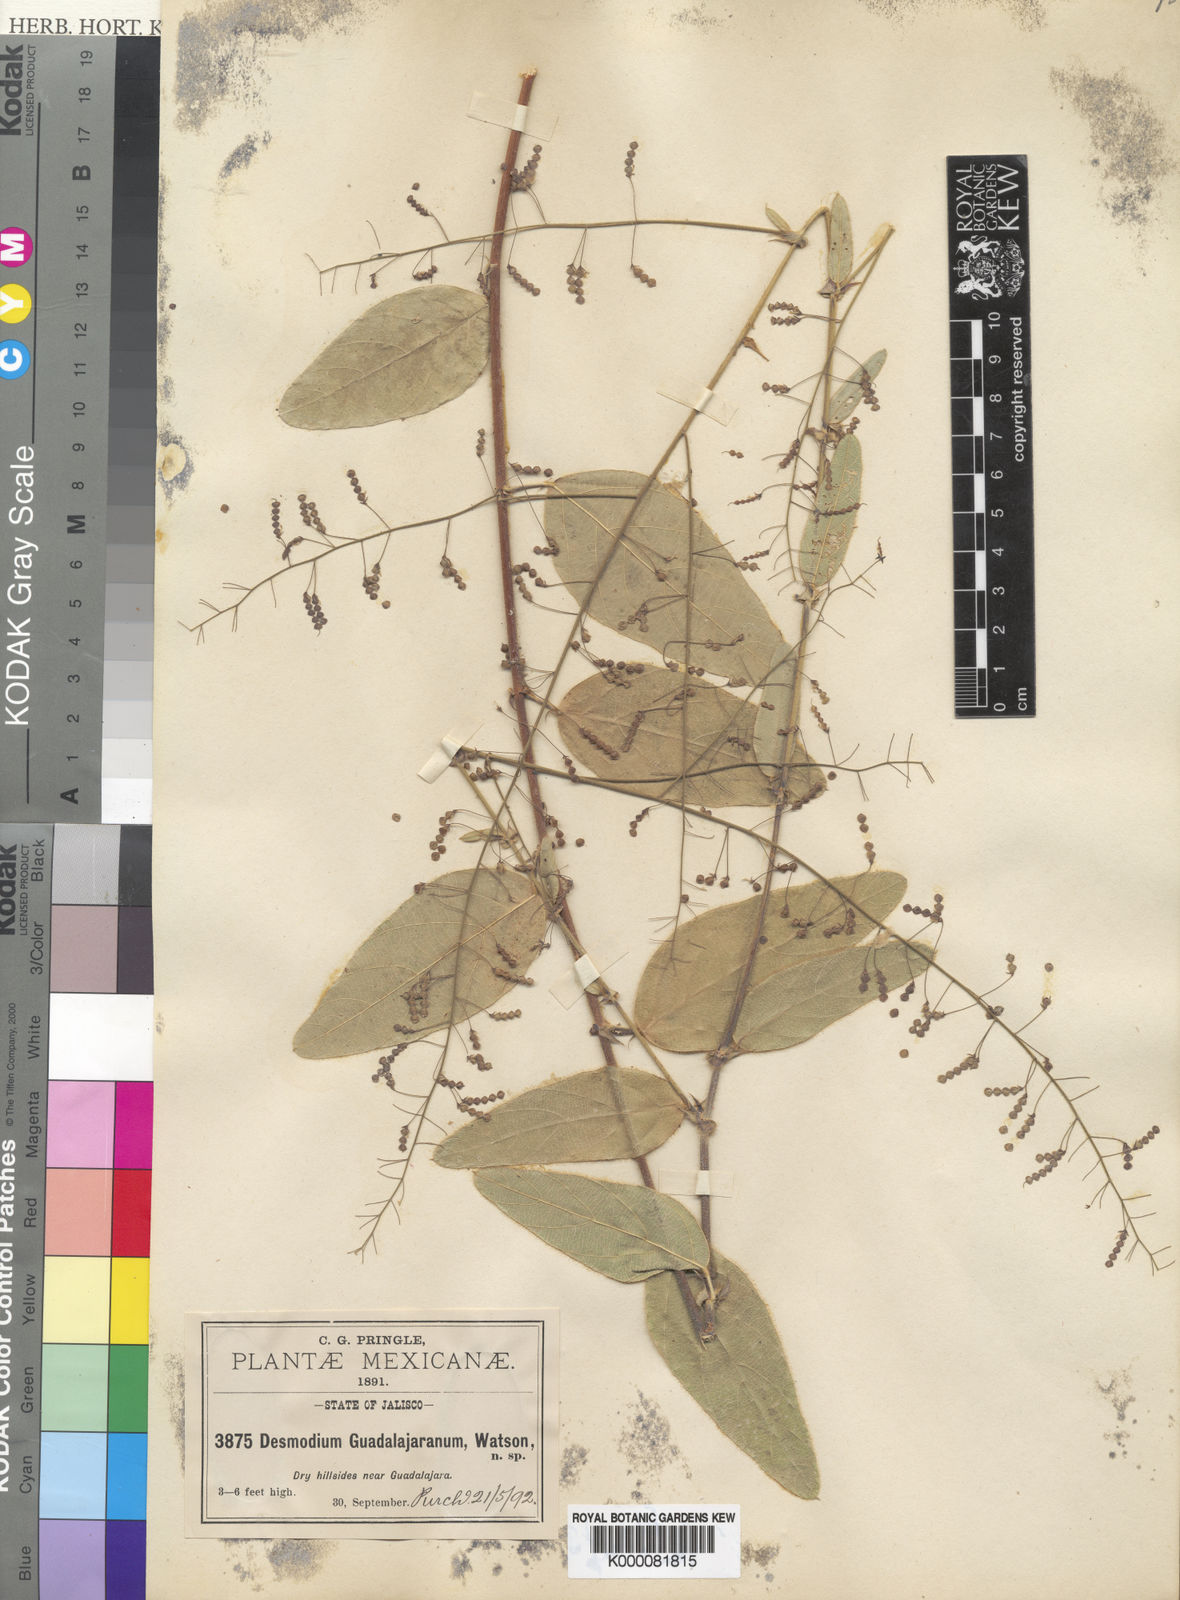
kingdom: Plantae
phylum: Tracheophyta
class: Magnoliopsida
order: Fabales
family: Fabaceae
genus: Desmodium
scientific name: Desmodium guadalajaranum
